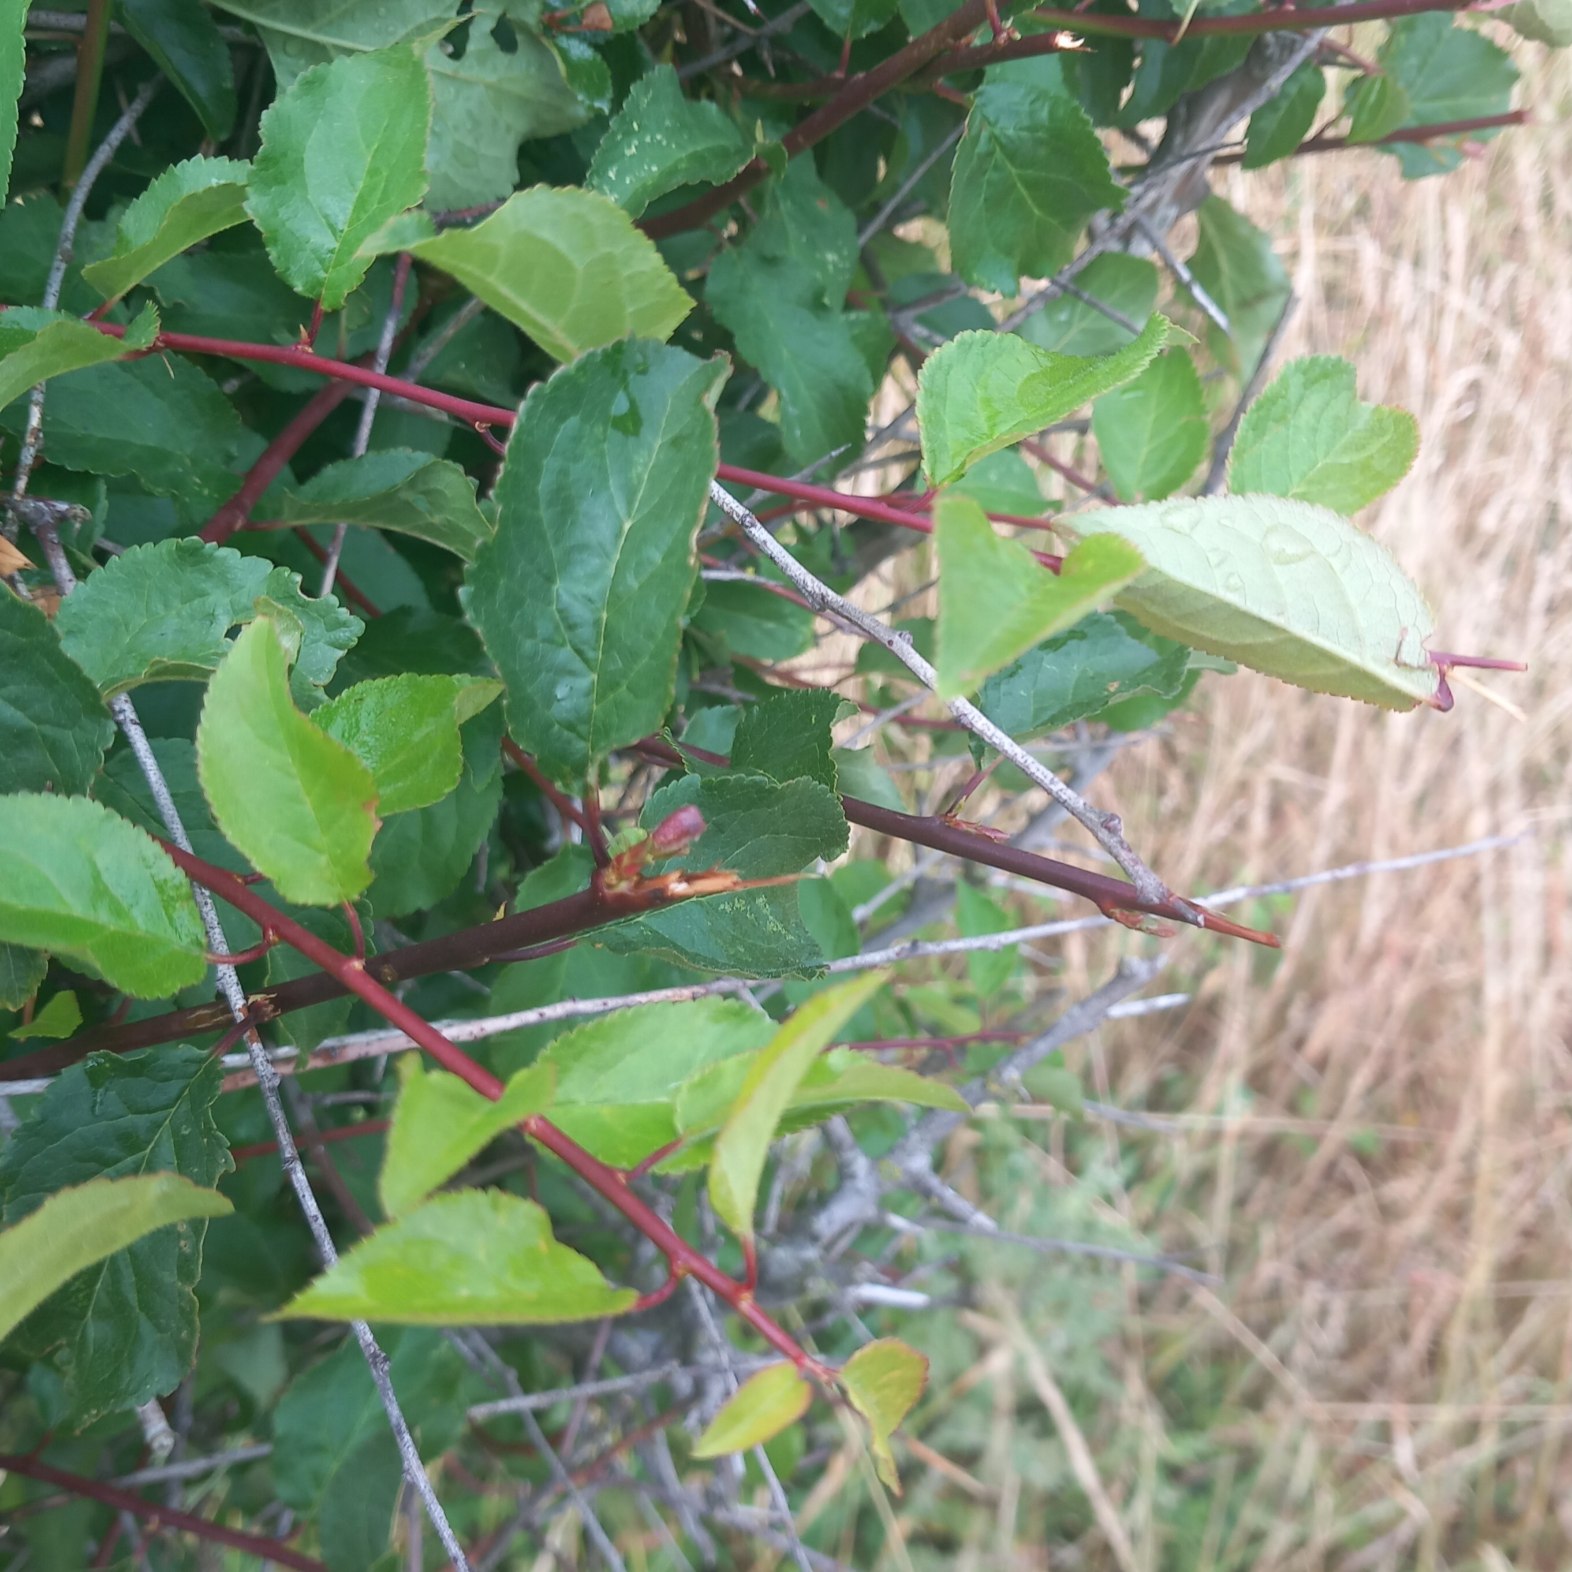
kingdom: Plantae
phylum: Tracheophyta
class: Magnoliopsida
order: Rosales
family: Rosaceae
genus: Prunus
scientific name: Prunus cerasifera
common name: Mirabel
